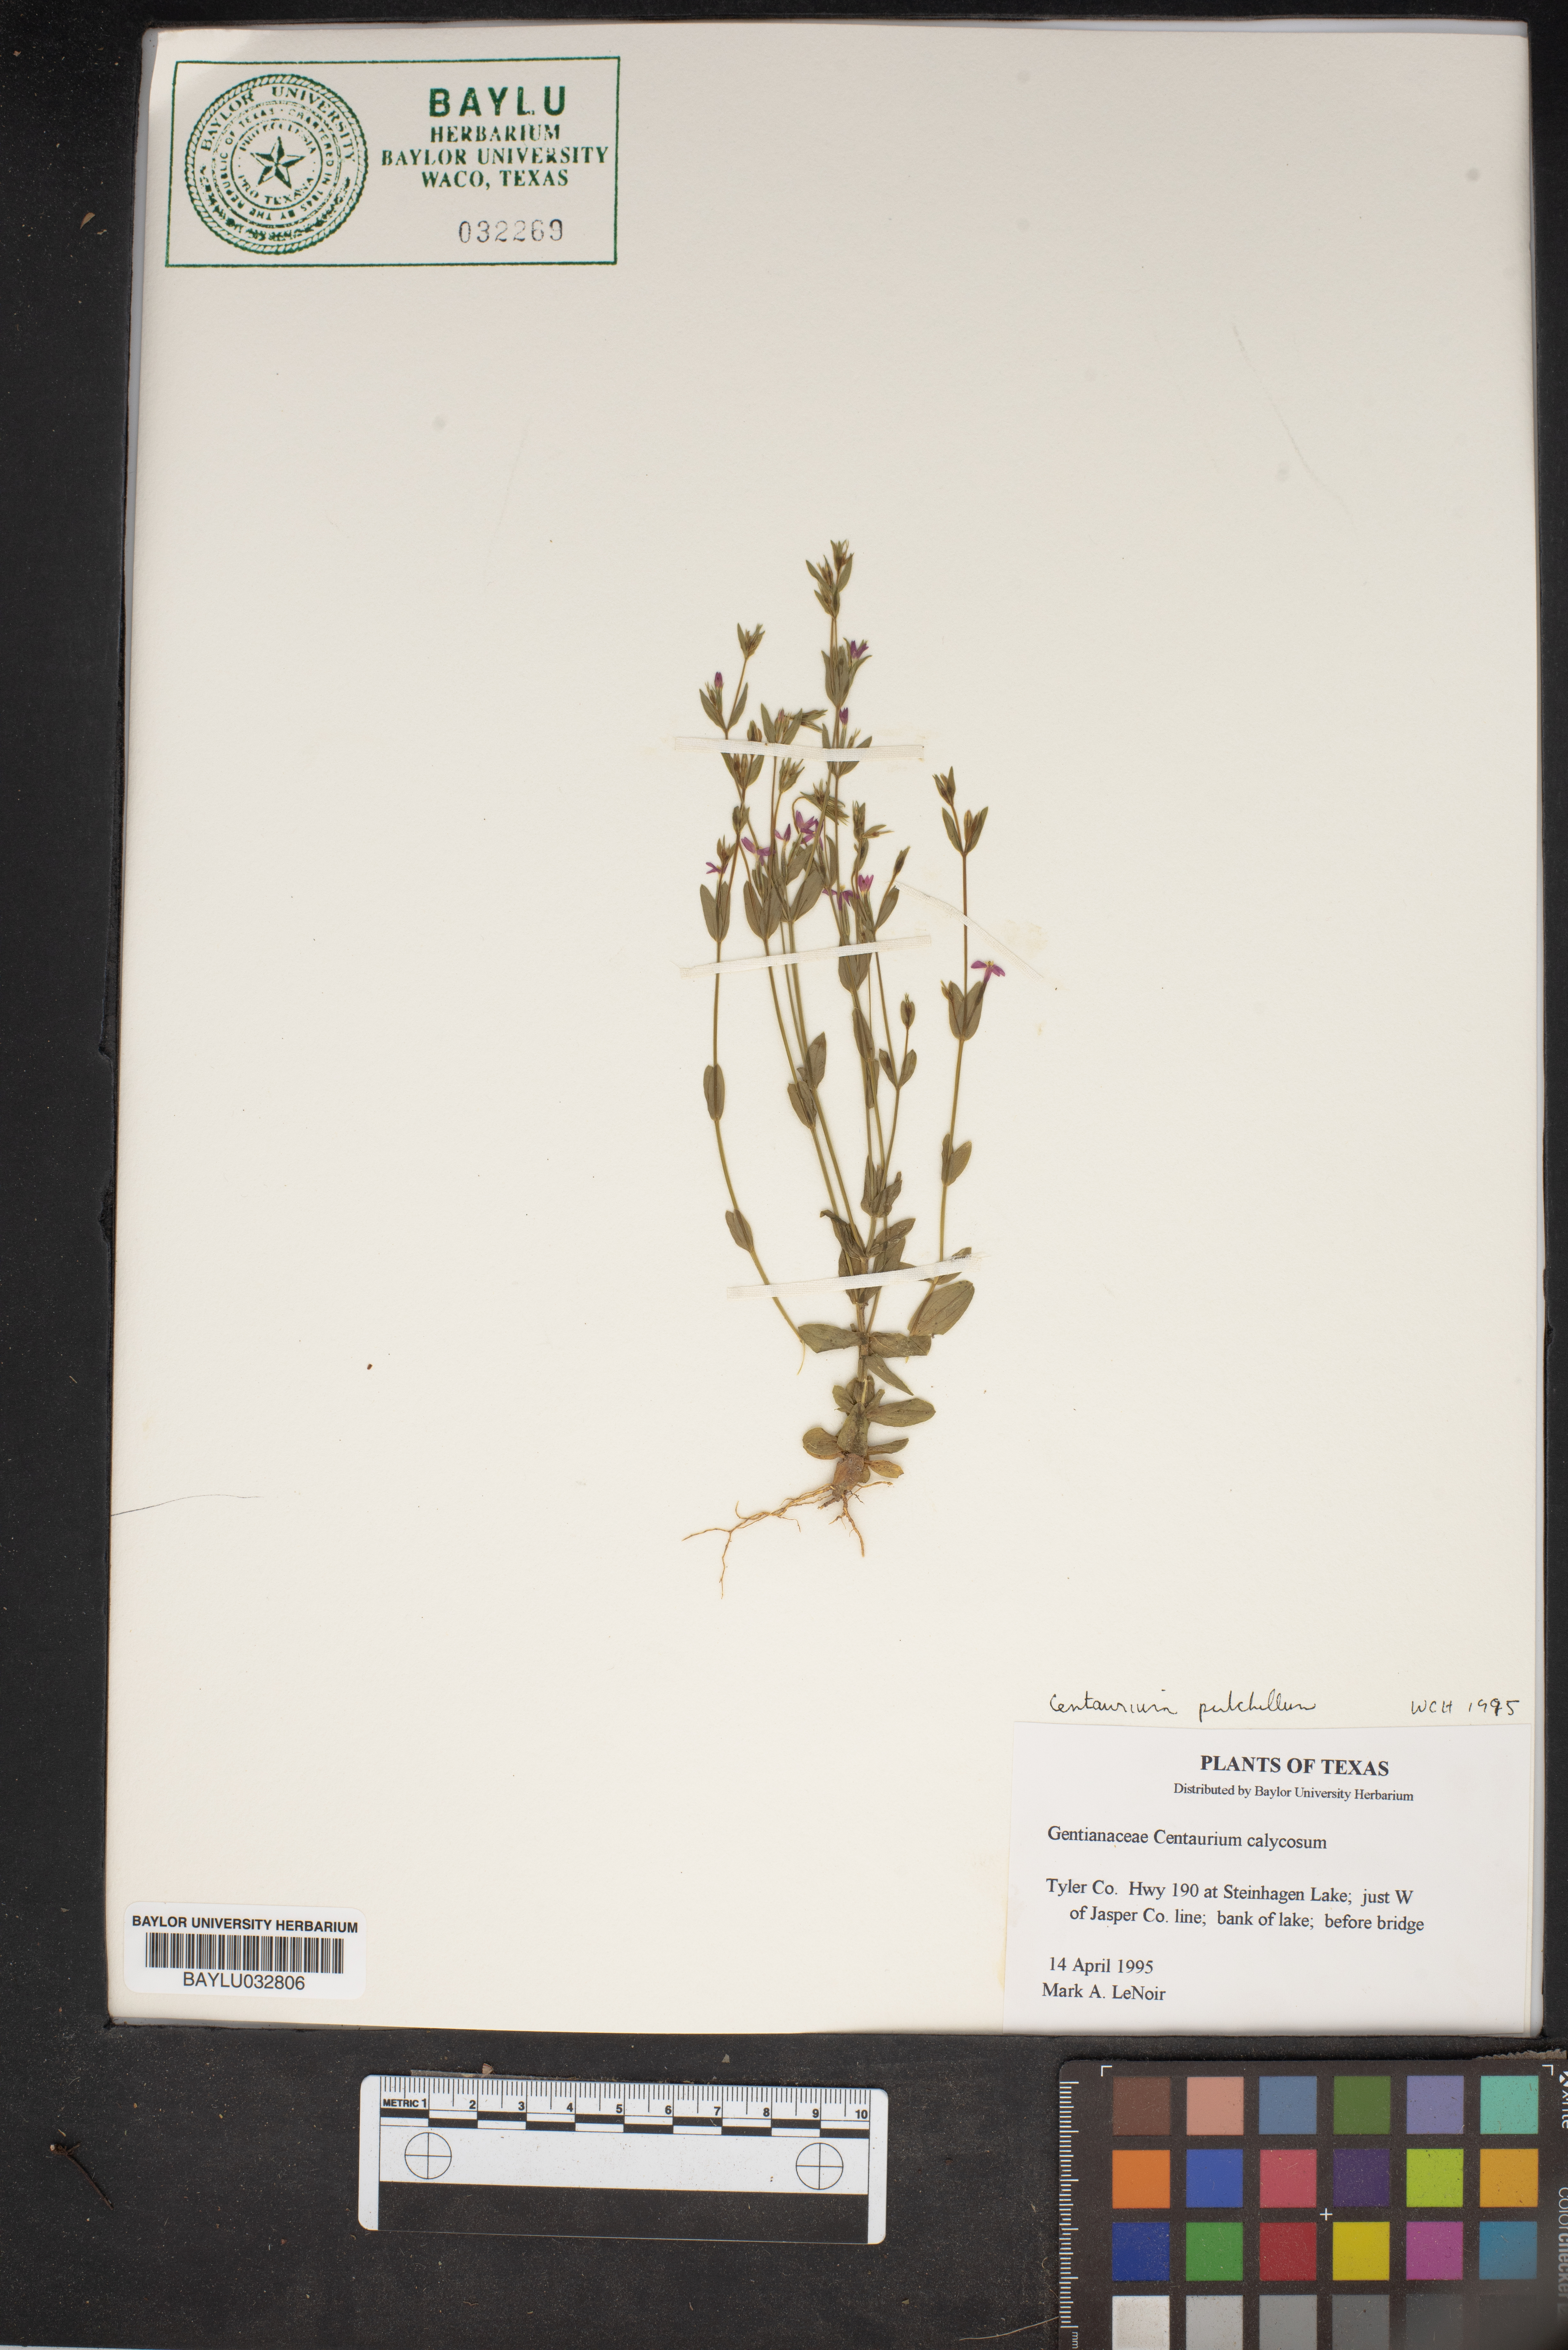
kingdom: Plantae
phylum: Tracheophyta
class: Magnoliopsida
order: Gentianales
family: Gentianaceae
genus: Centaurium
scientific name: Centaurium pulchellum
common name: Lesser centaury
